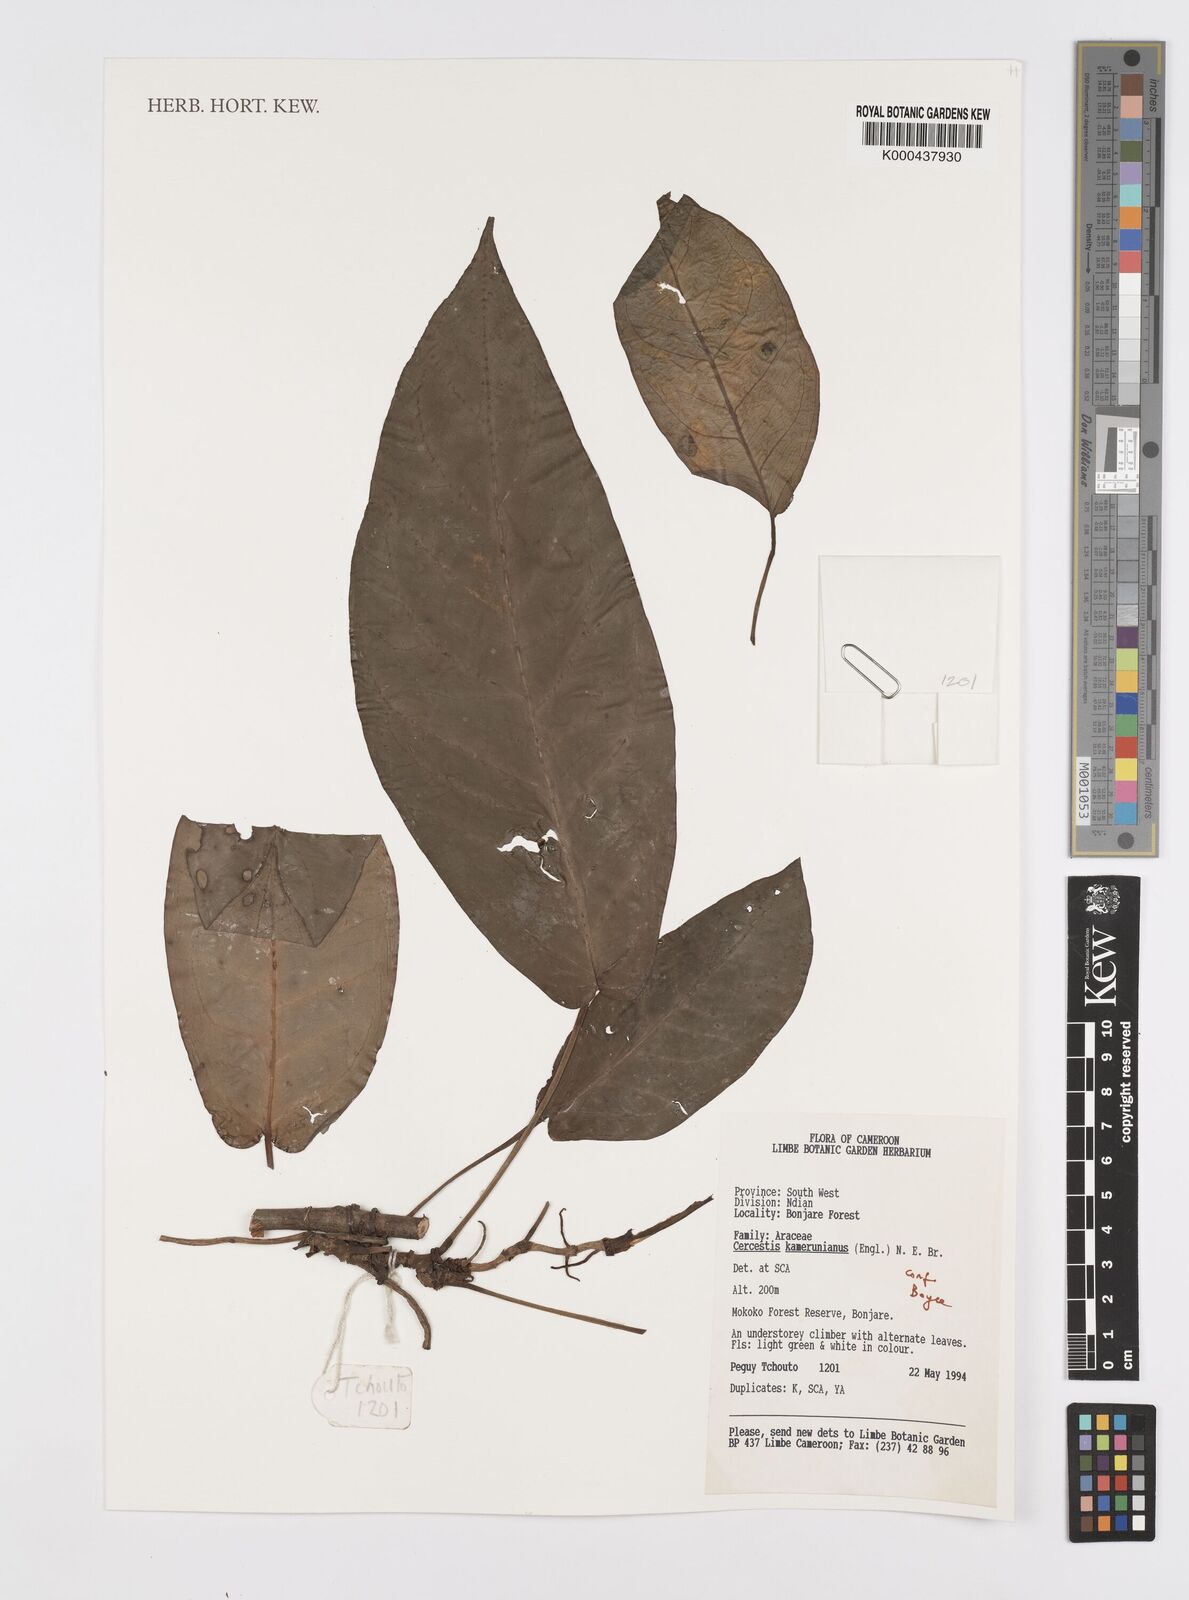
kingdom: Plantae
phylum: Tracheophyta
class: Liliopsida
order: Alismatales
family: Araceae
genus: Cercestis
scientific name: Cercestis kamerunianus
